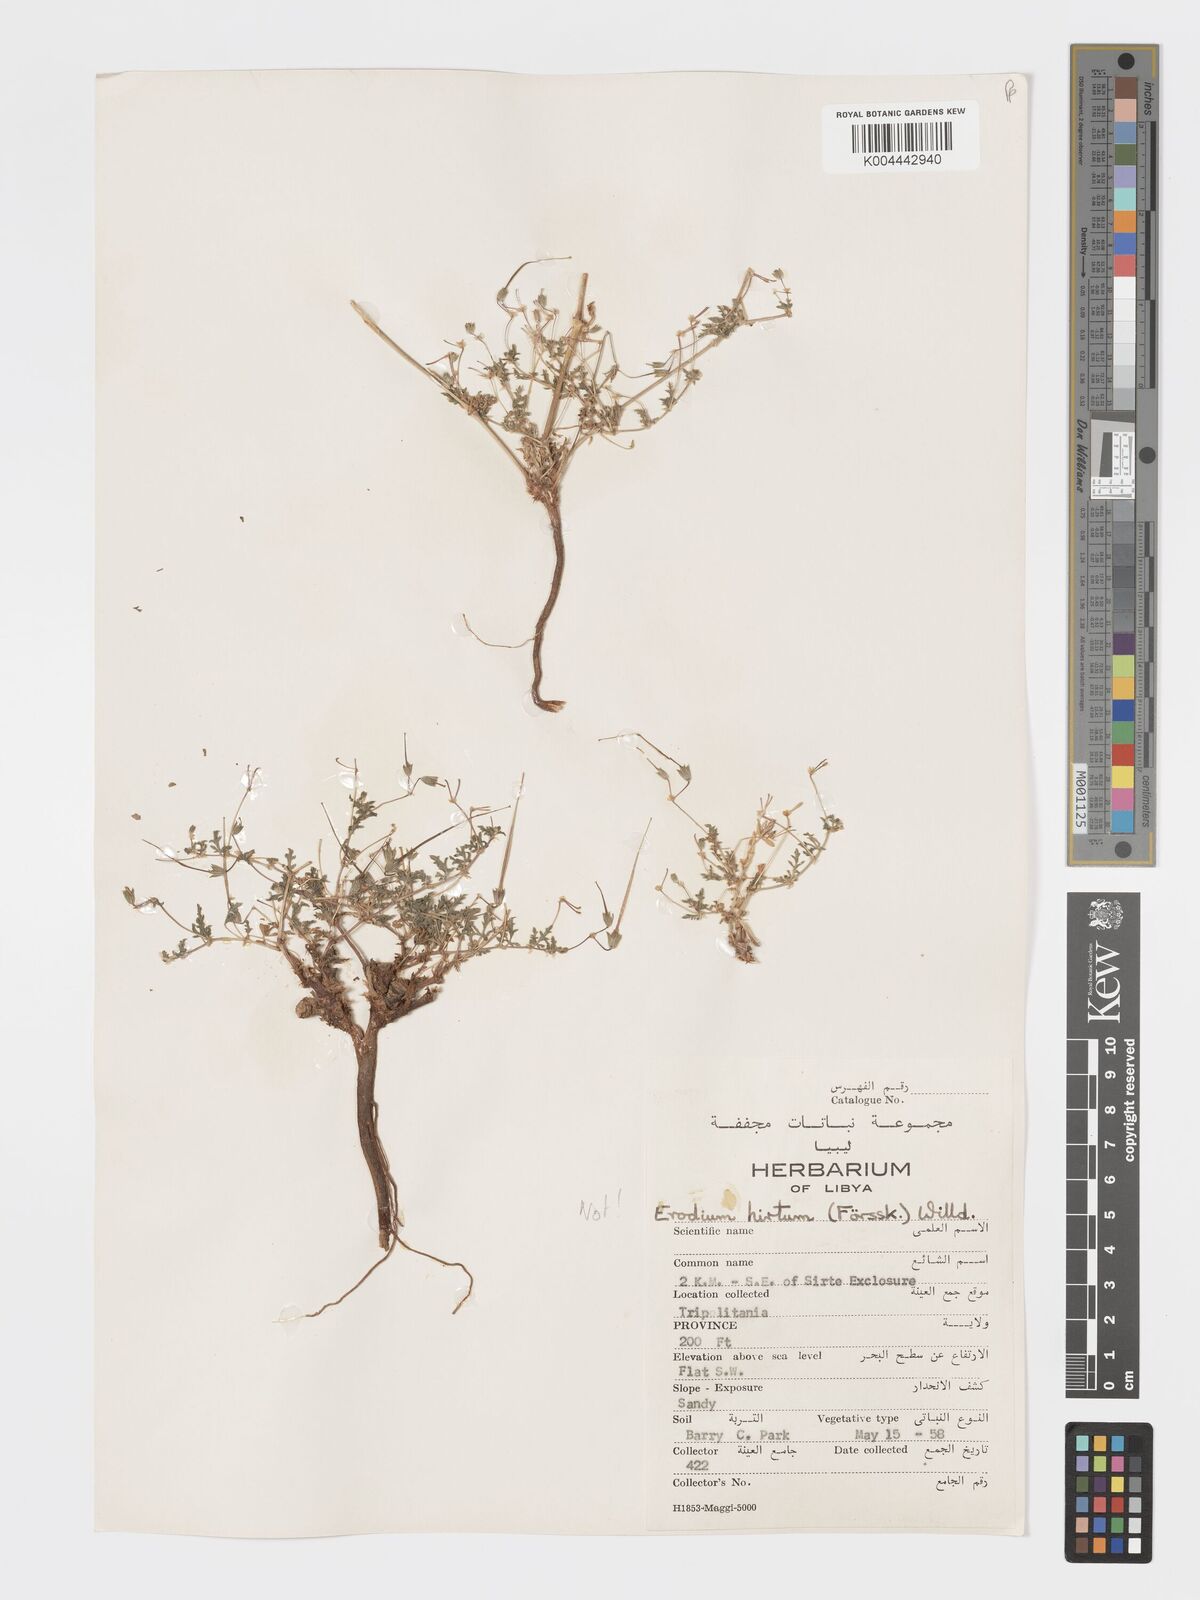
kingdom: Plantae
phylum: Tracheophyta
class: Magnoliopsida
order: Geraniales
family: Geraniaceae
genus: Erodium
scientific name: Erodium crassifolium
